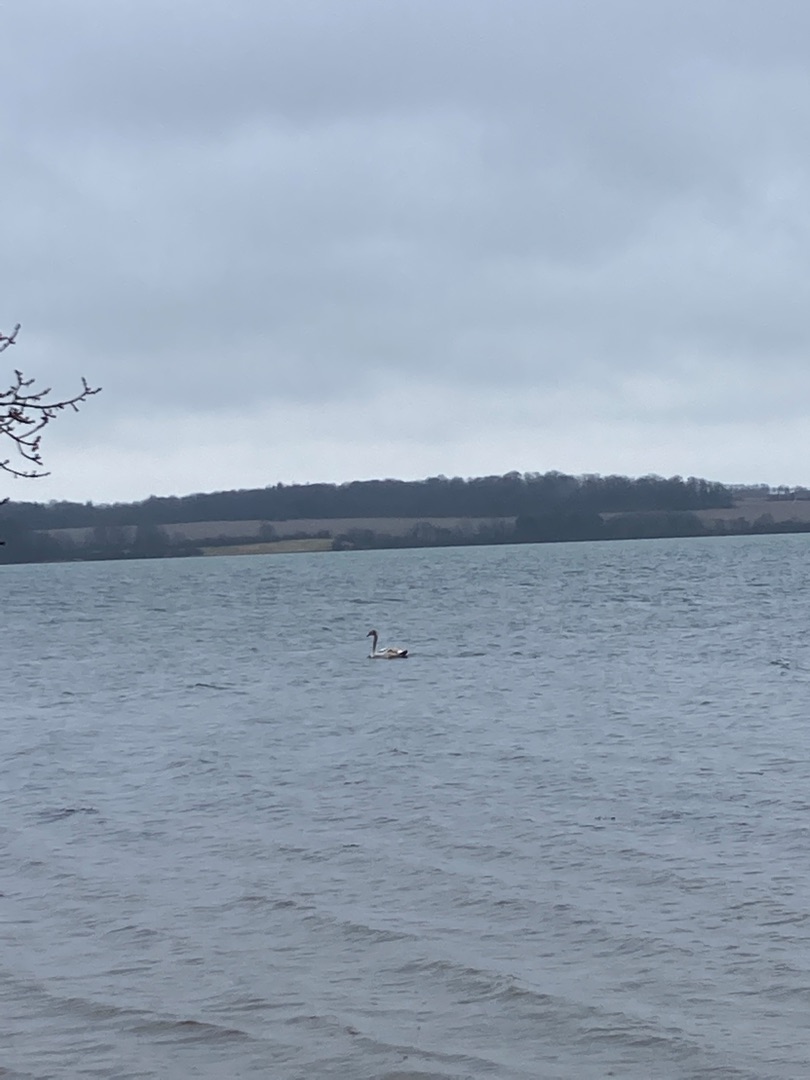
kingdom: Animalia
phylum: Chordata
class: Aves
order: Anseriformes
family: Anatidae
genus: Cygnus
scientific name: Cygnus olor
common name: Knopsvane
